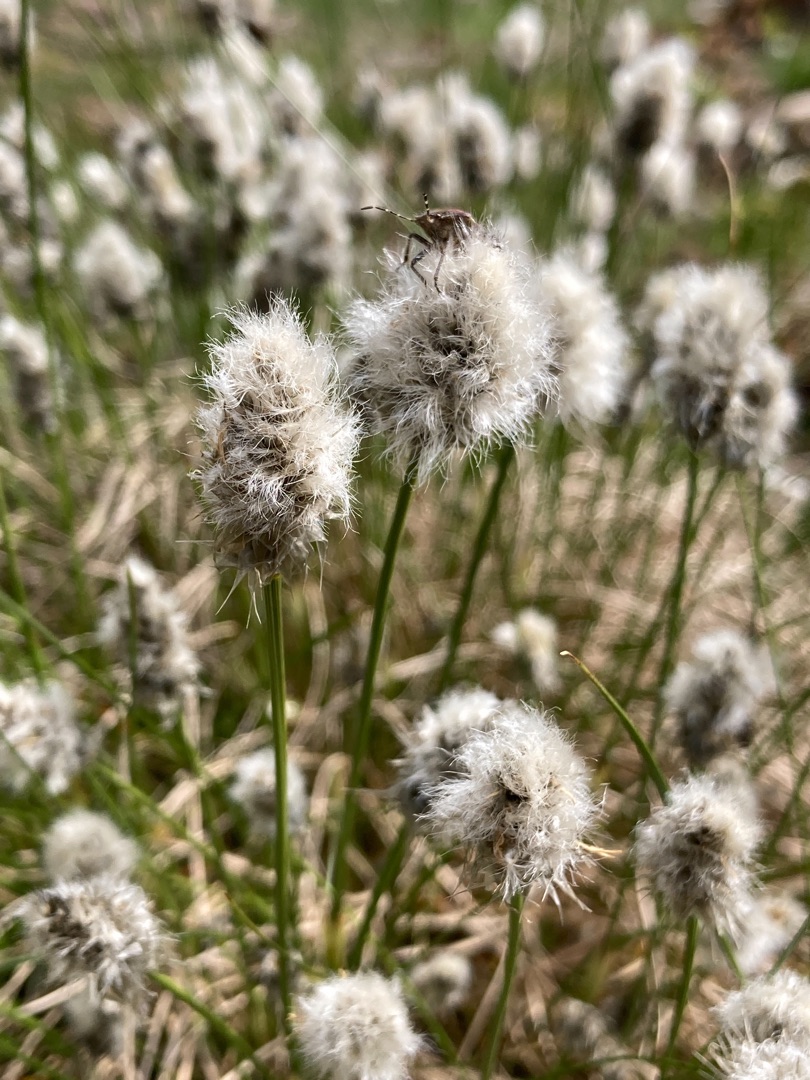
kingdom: Plantae
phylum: Tracheophyta
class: Liliopsida
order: Poales
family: Cyperaceae
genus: Eriophorum
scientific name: Eriophorum vaginatum
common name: Tue-kæruld
